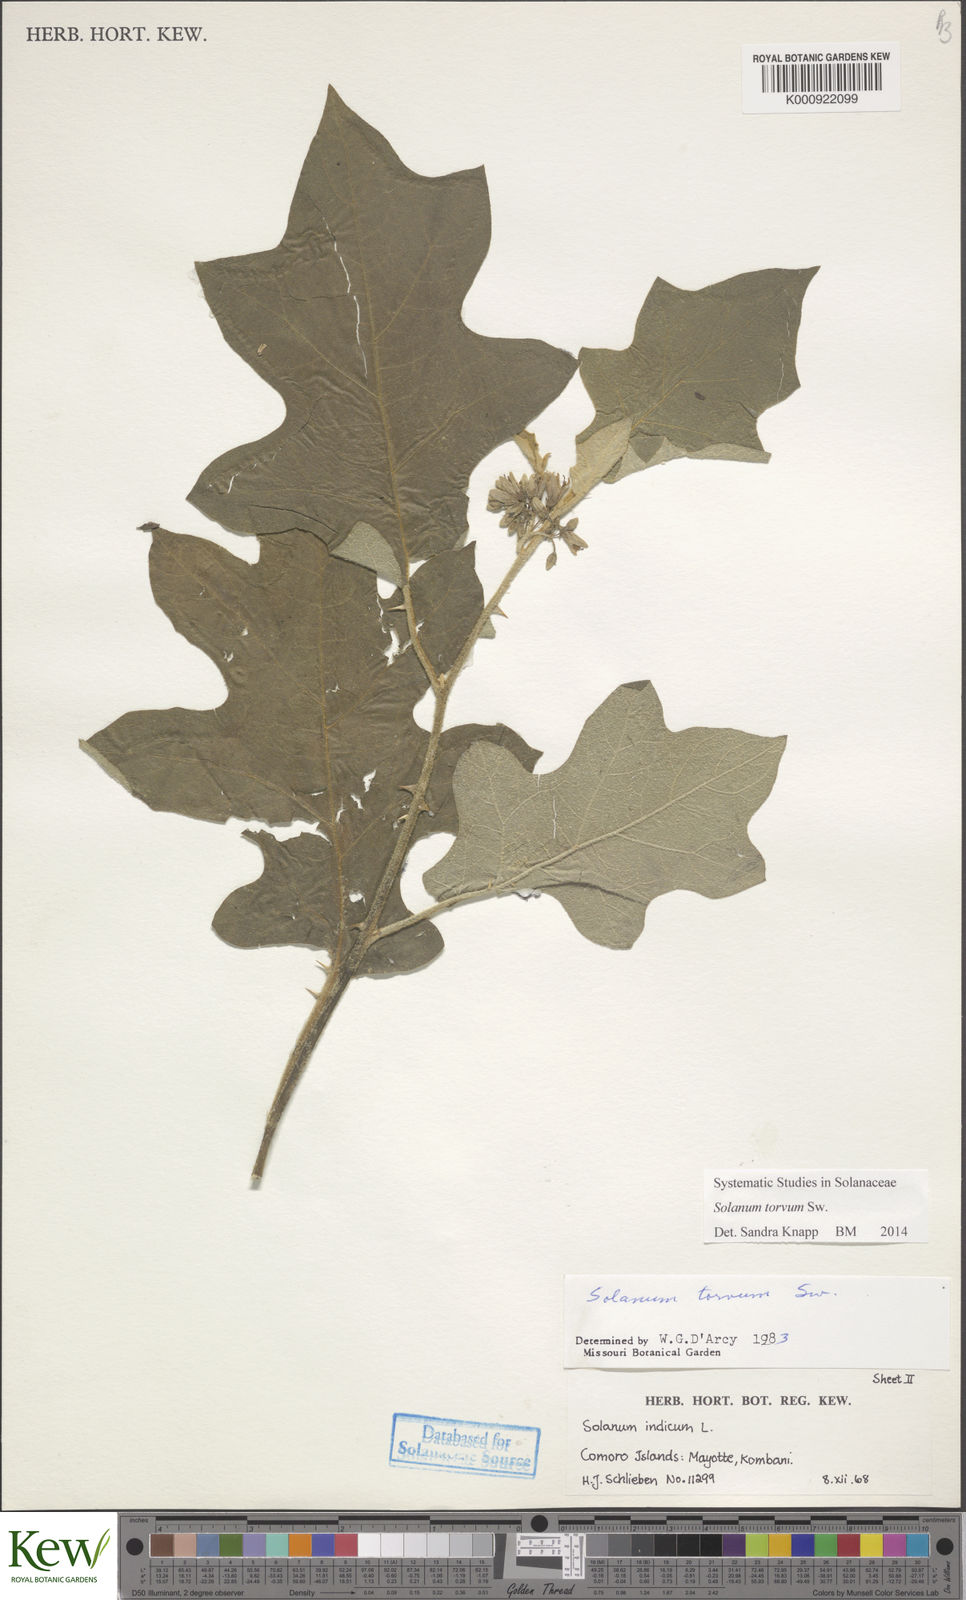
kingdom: Plantae
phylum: Tracheophyta
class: Magnoliopsida
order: Solanales
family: Solanaceae
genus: Solanum
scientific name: Solanum torvum
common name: Turkey berry
